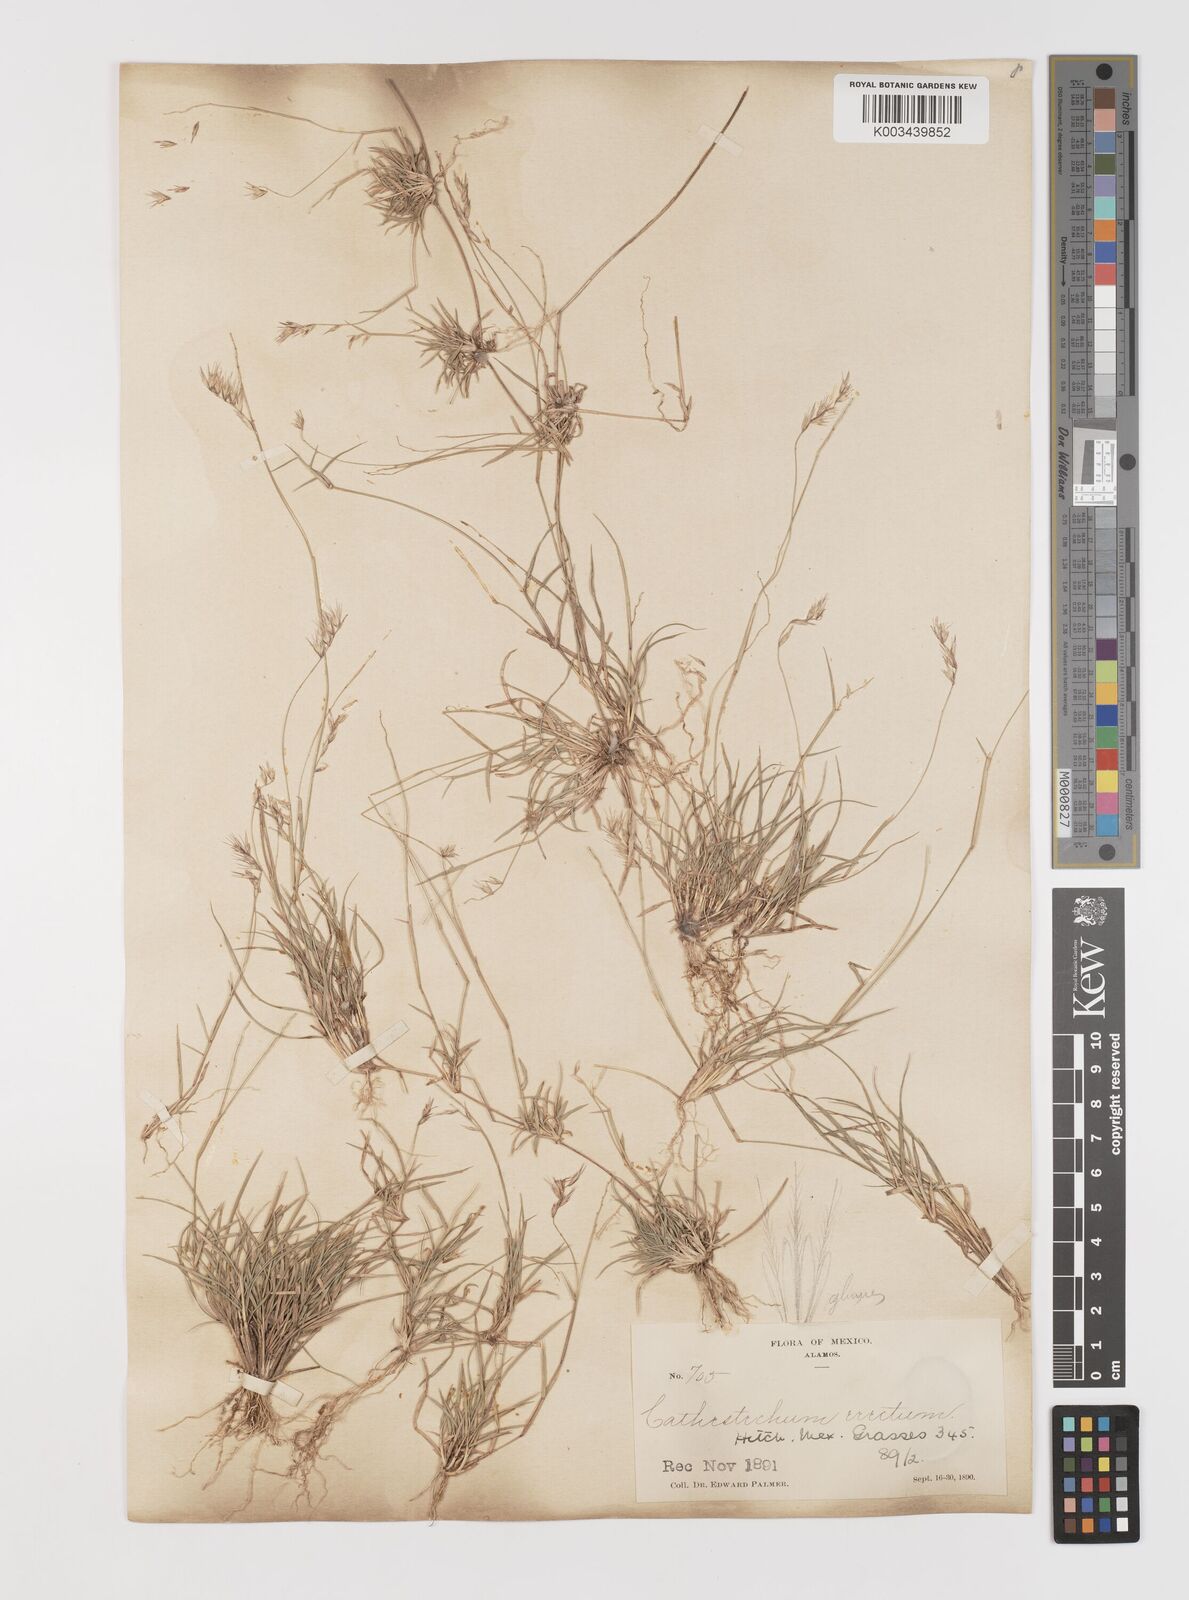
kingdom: Plantae
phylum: Tracheophyta
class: Liliopsida
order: Poales
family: Poaceae
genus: Bouteloua
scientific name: Bouteloua erecta
